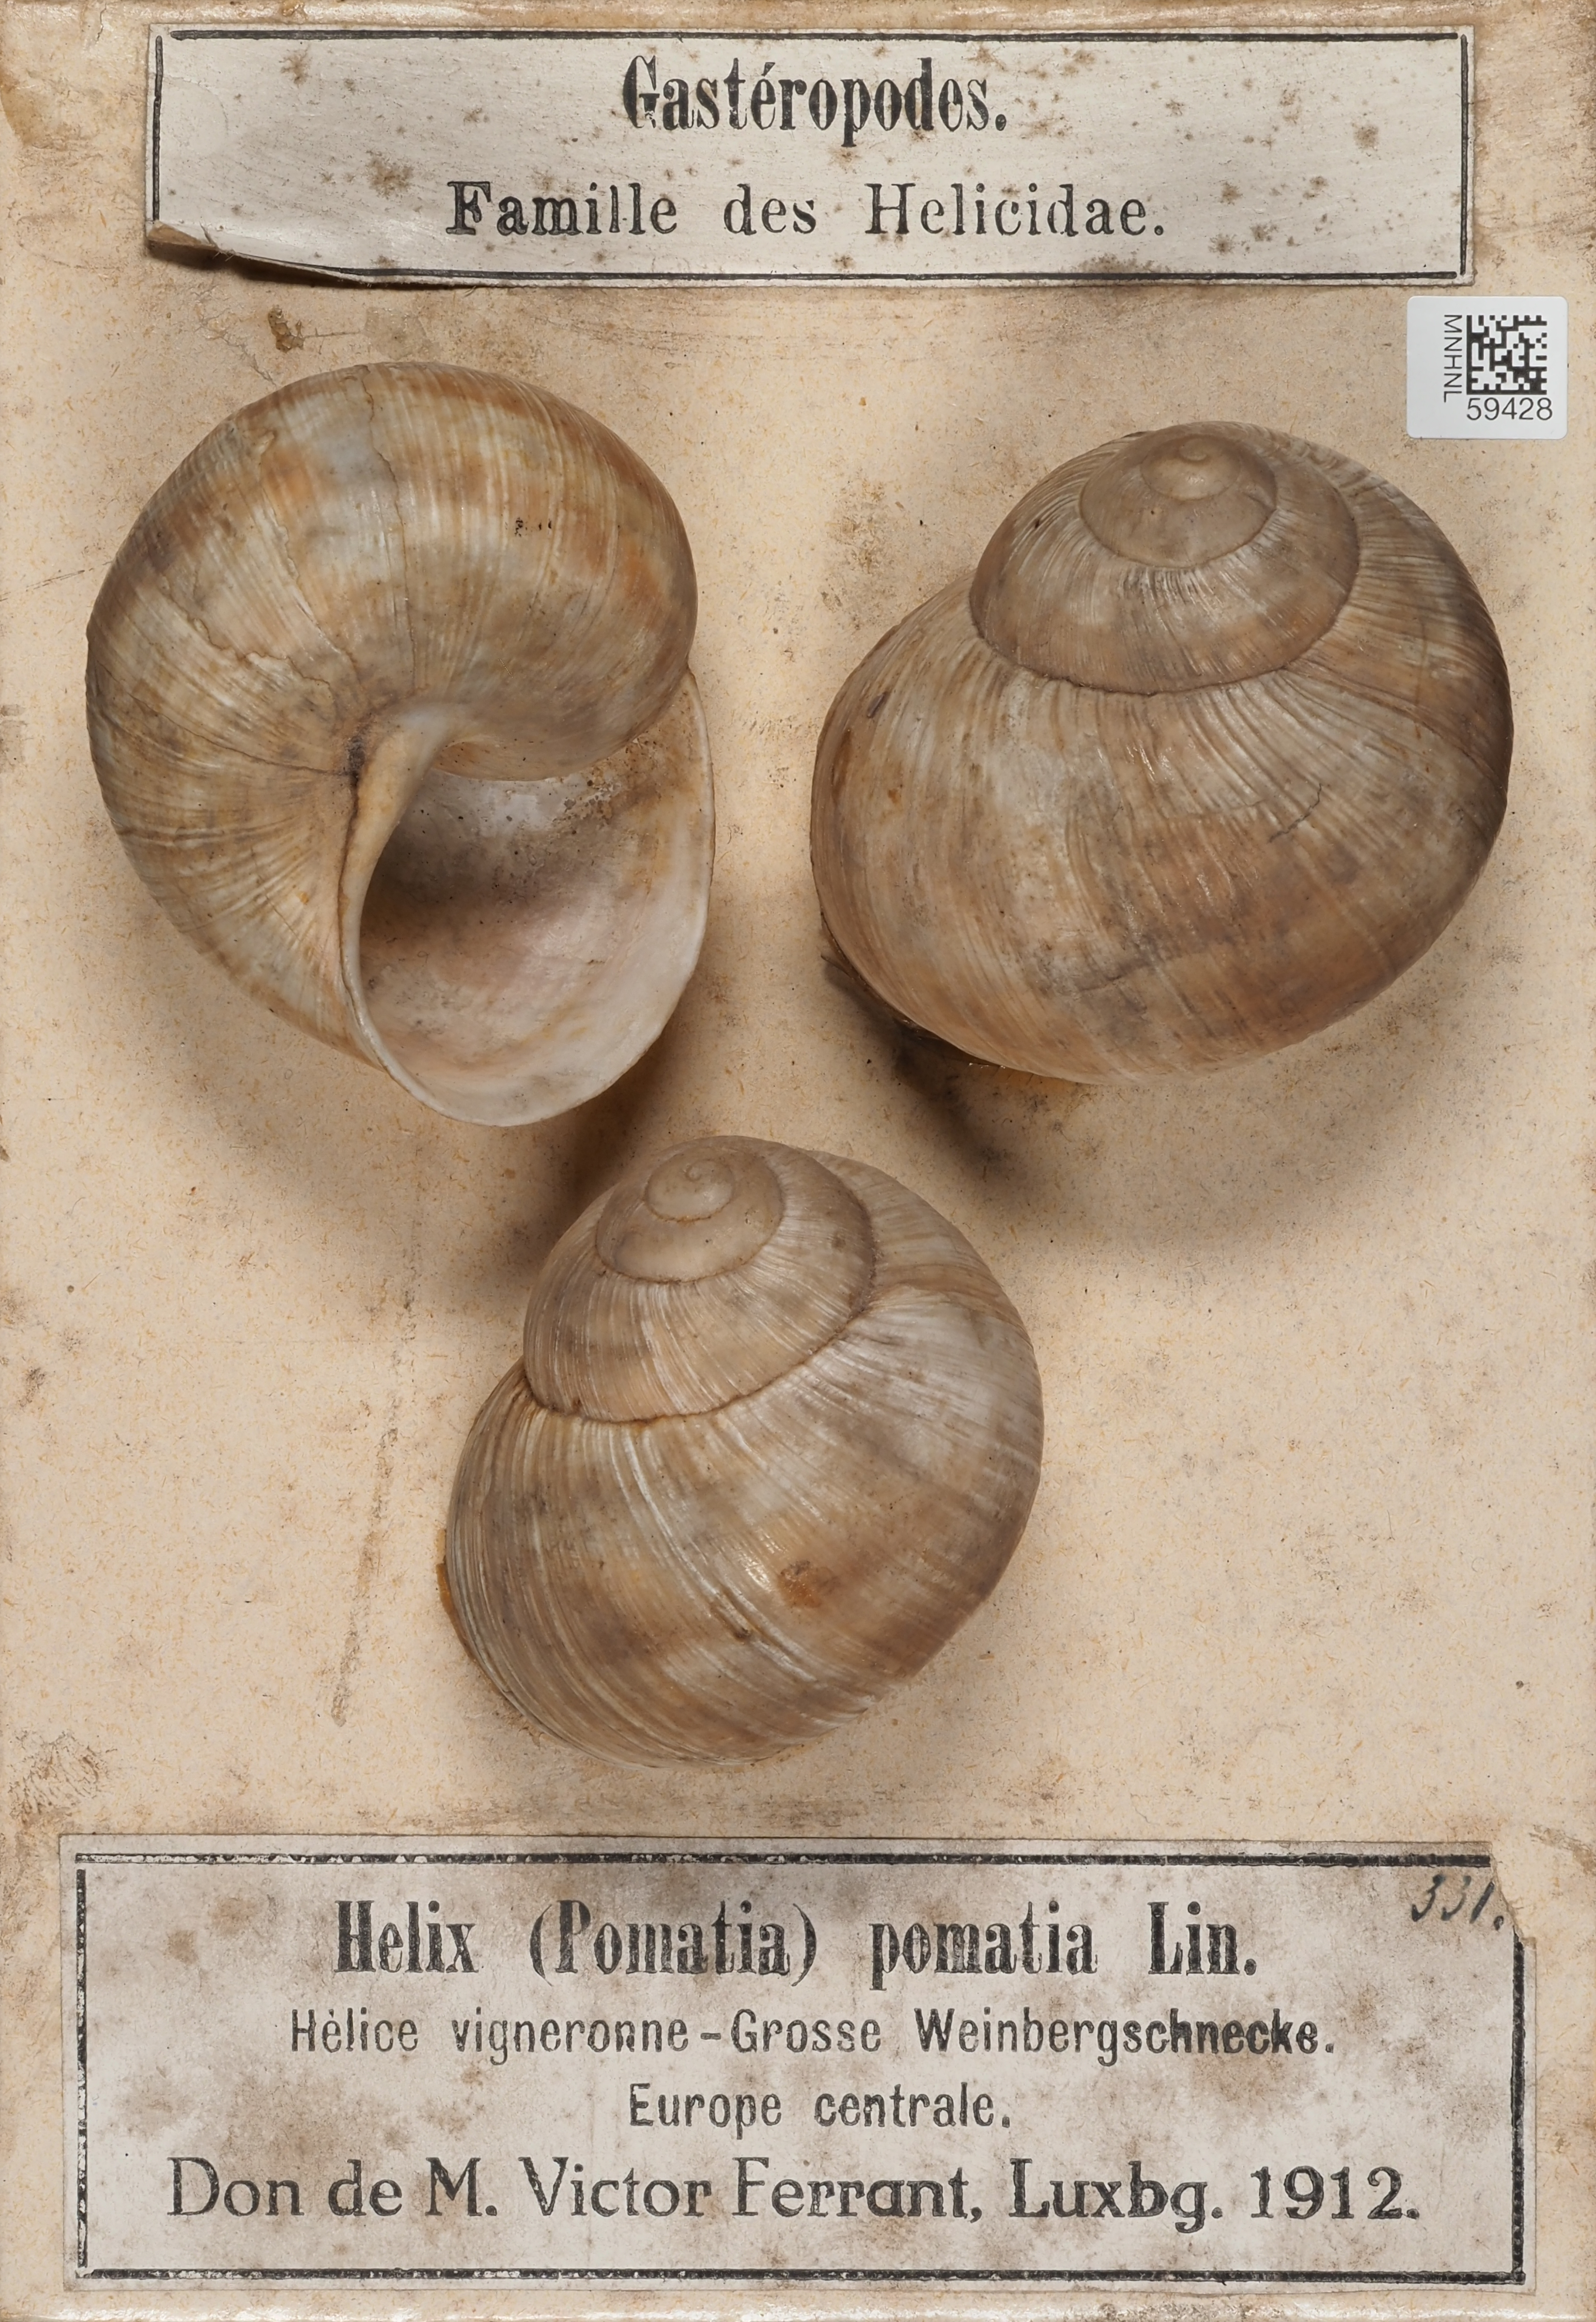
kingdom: Animalia
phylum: Mollusca
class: Gastropoda
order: Stylommatophora
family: Helicidae
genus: Helix
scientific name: Helix pomatia
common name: Roman snail
